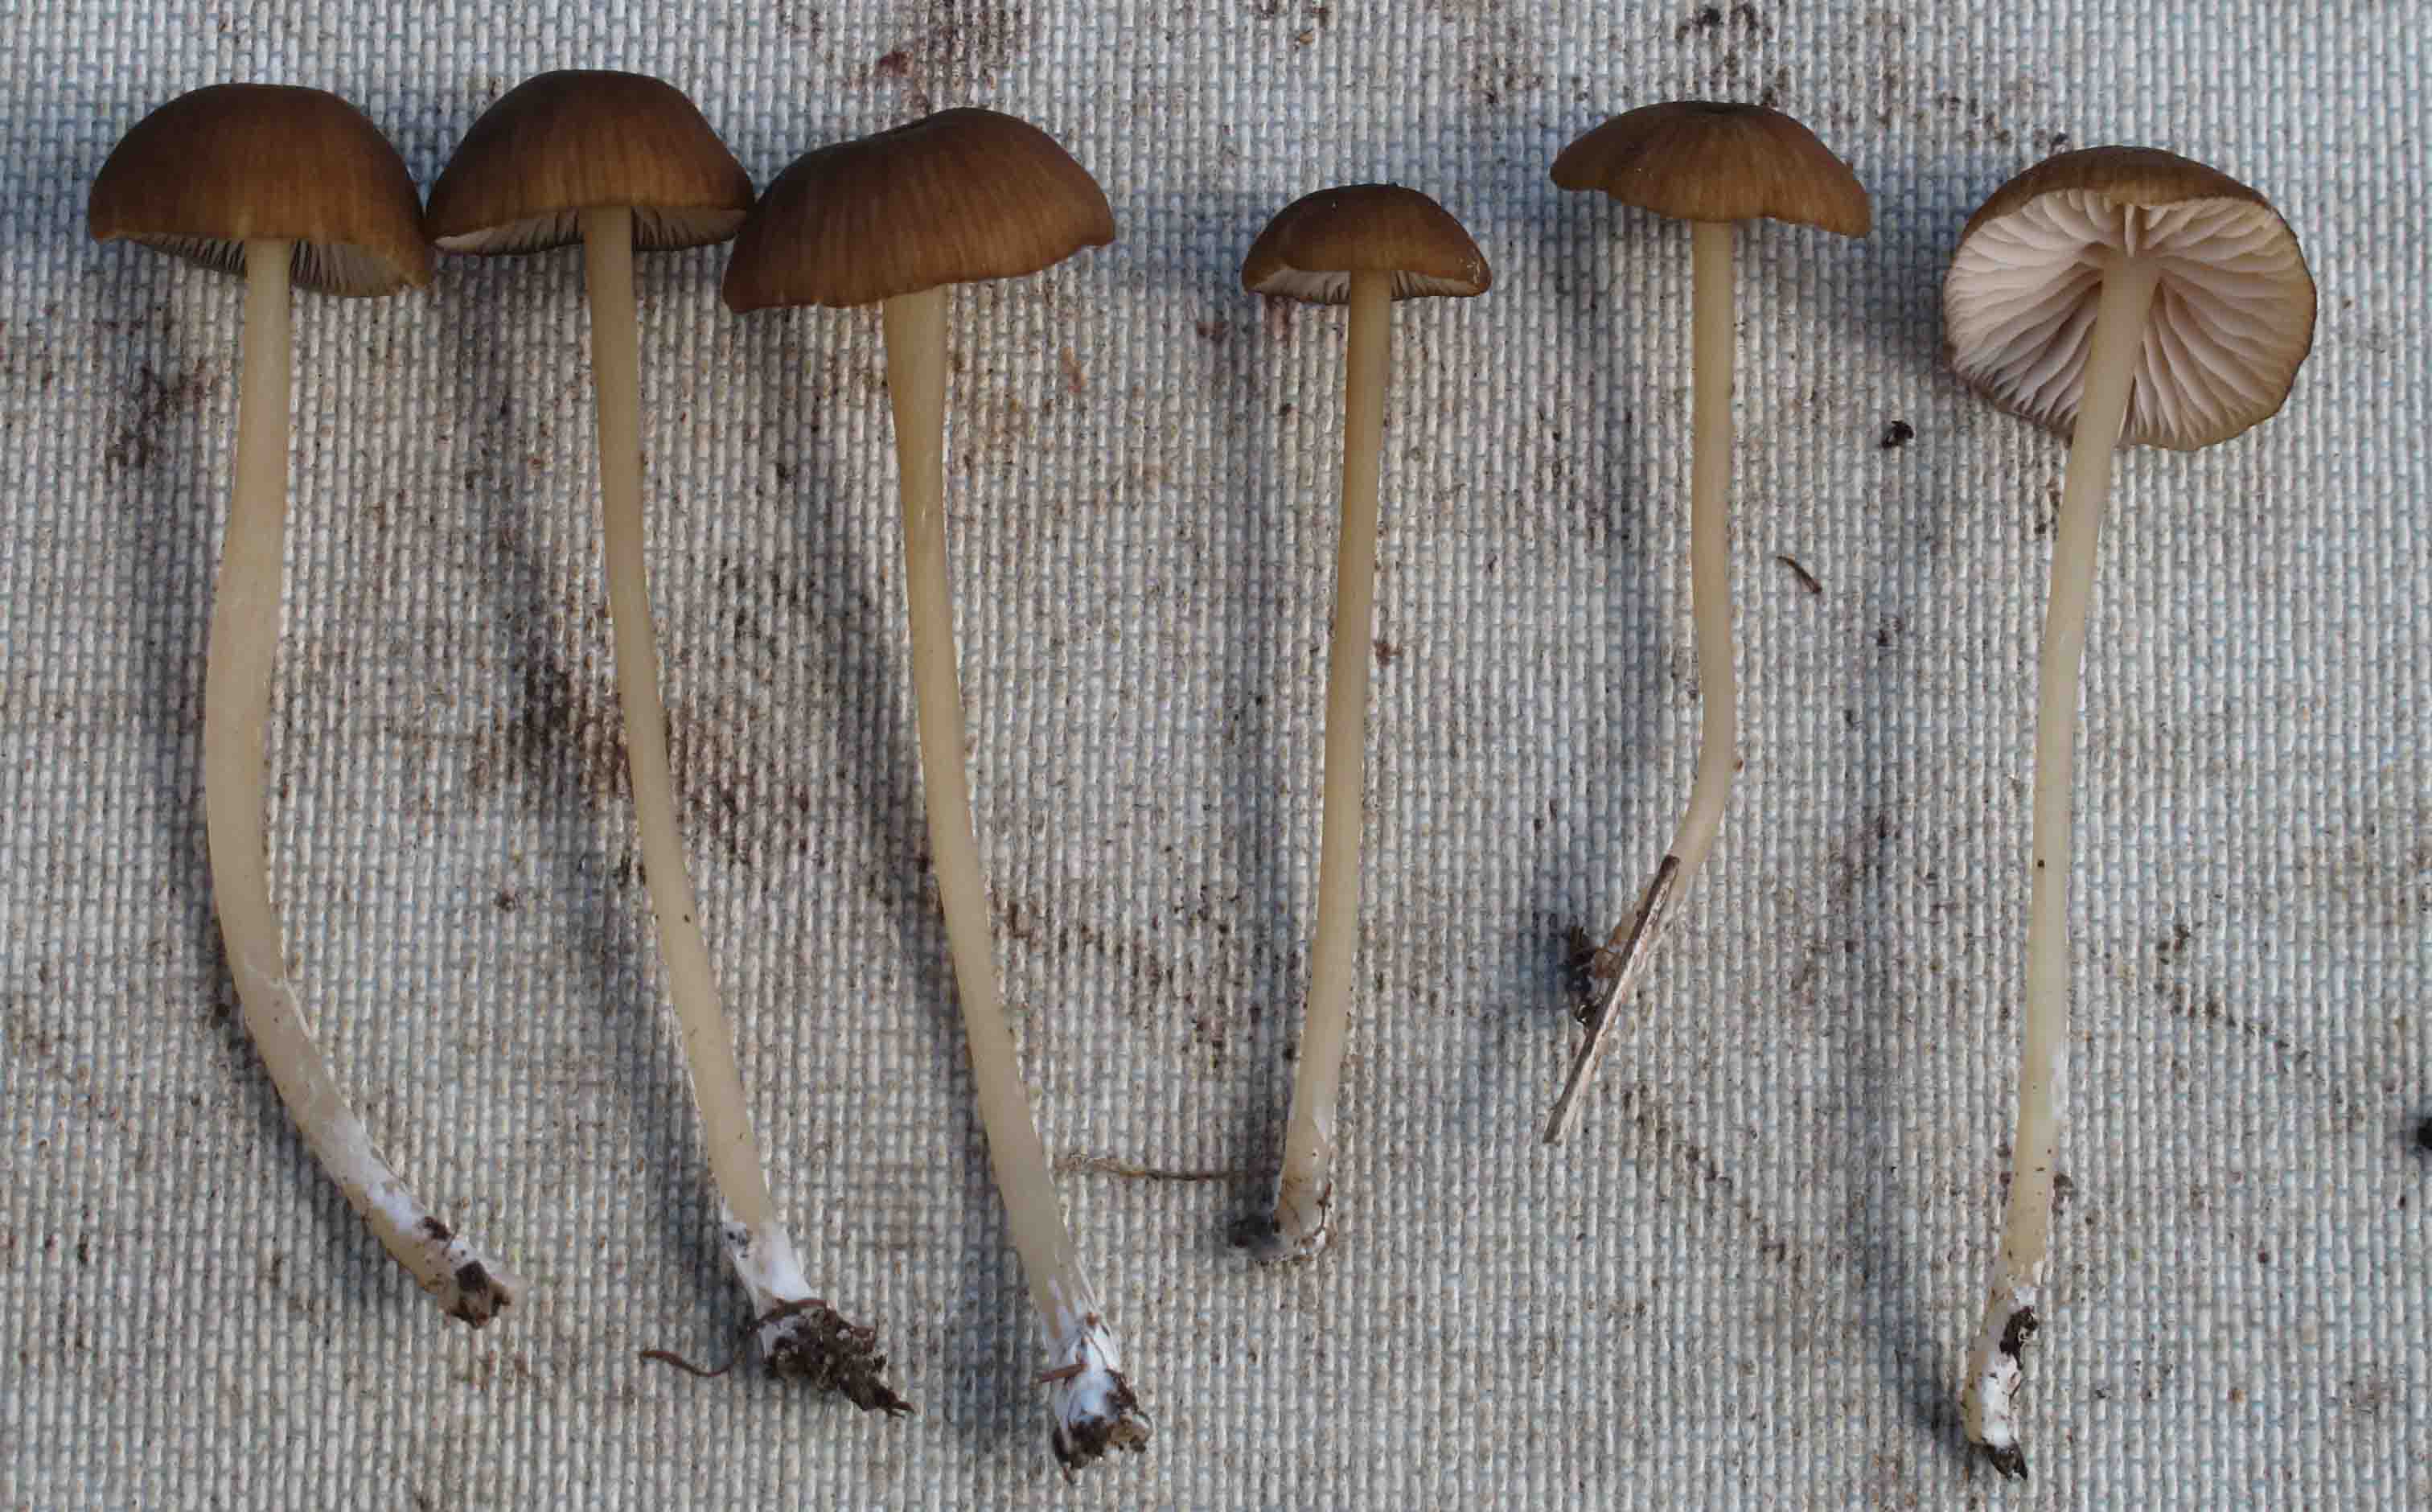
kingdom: Fungi
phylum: Basidiomycota
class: Agaricomycetes
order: Agaricales
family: Entolomataceae
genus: Entoloma
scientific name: Entoloma olivaceotinctum
